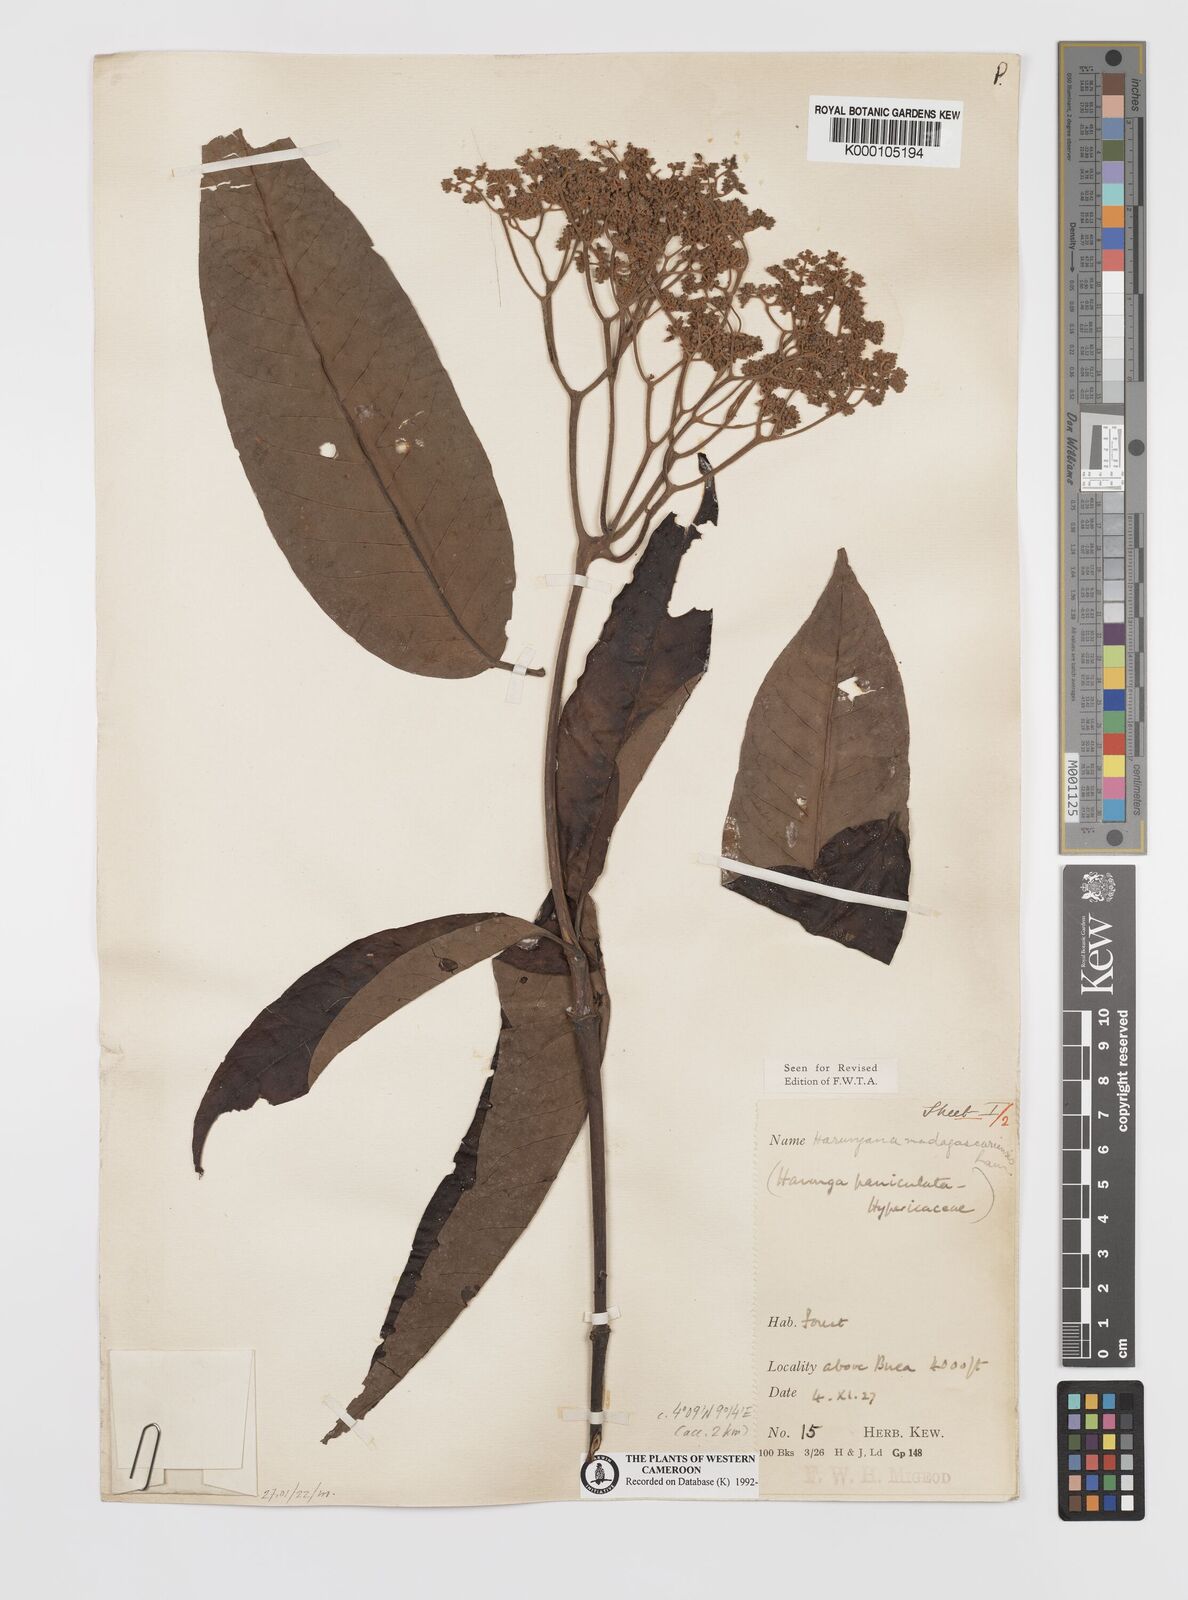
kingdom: Plantae
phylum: Tracheophyta
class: Magnoliopsida
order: Malpighiales
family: Hypericaceae
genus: Harungana
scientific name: Harungana madagascariensis
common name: Orange milktree
